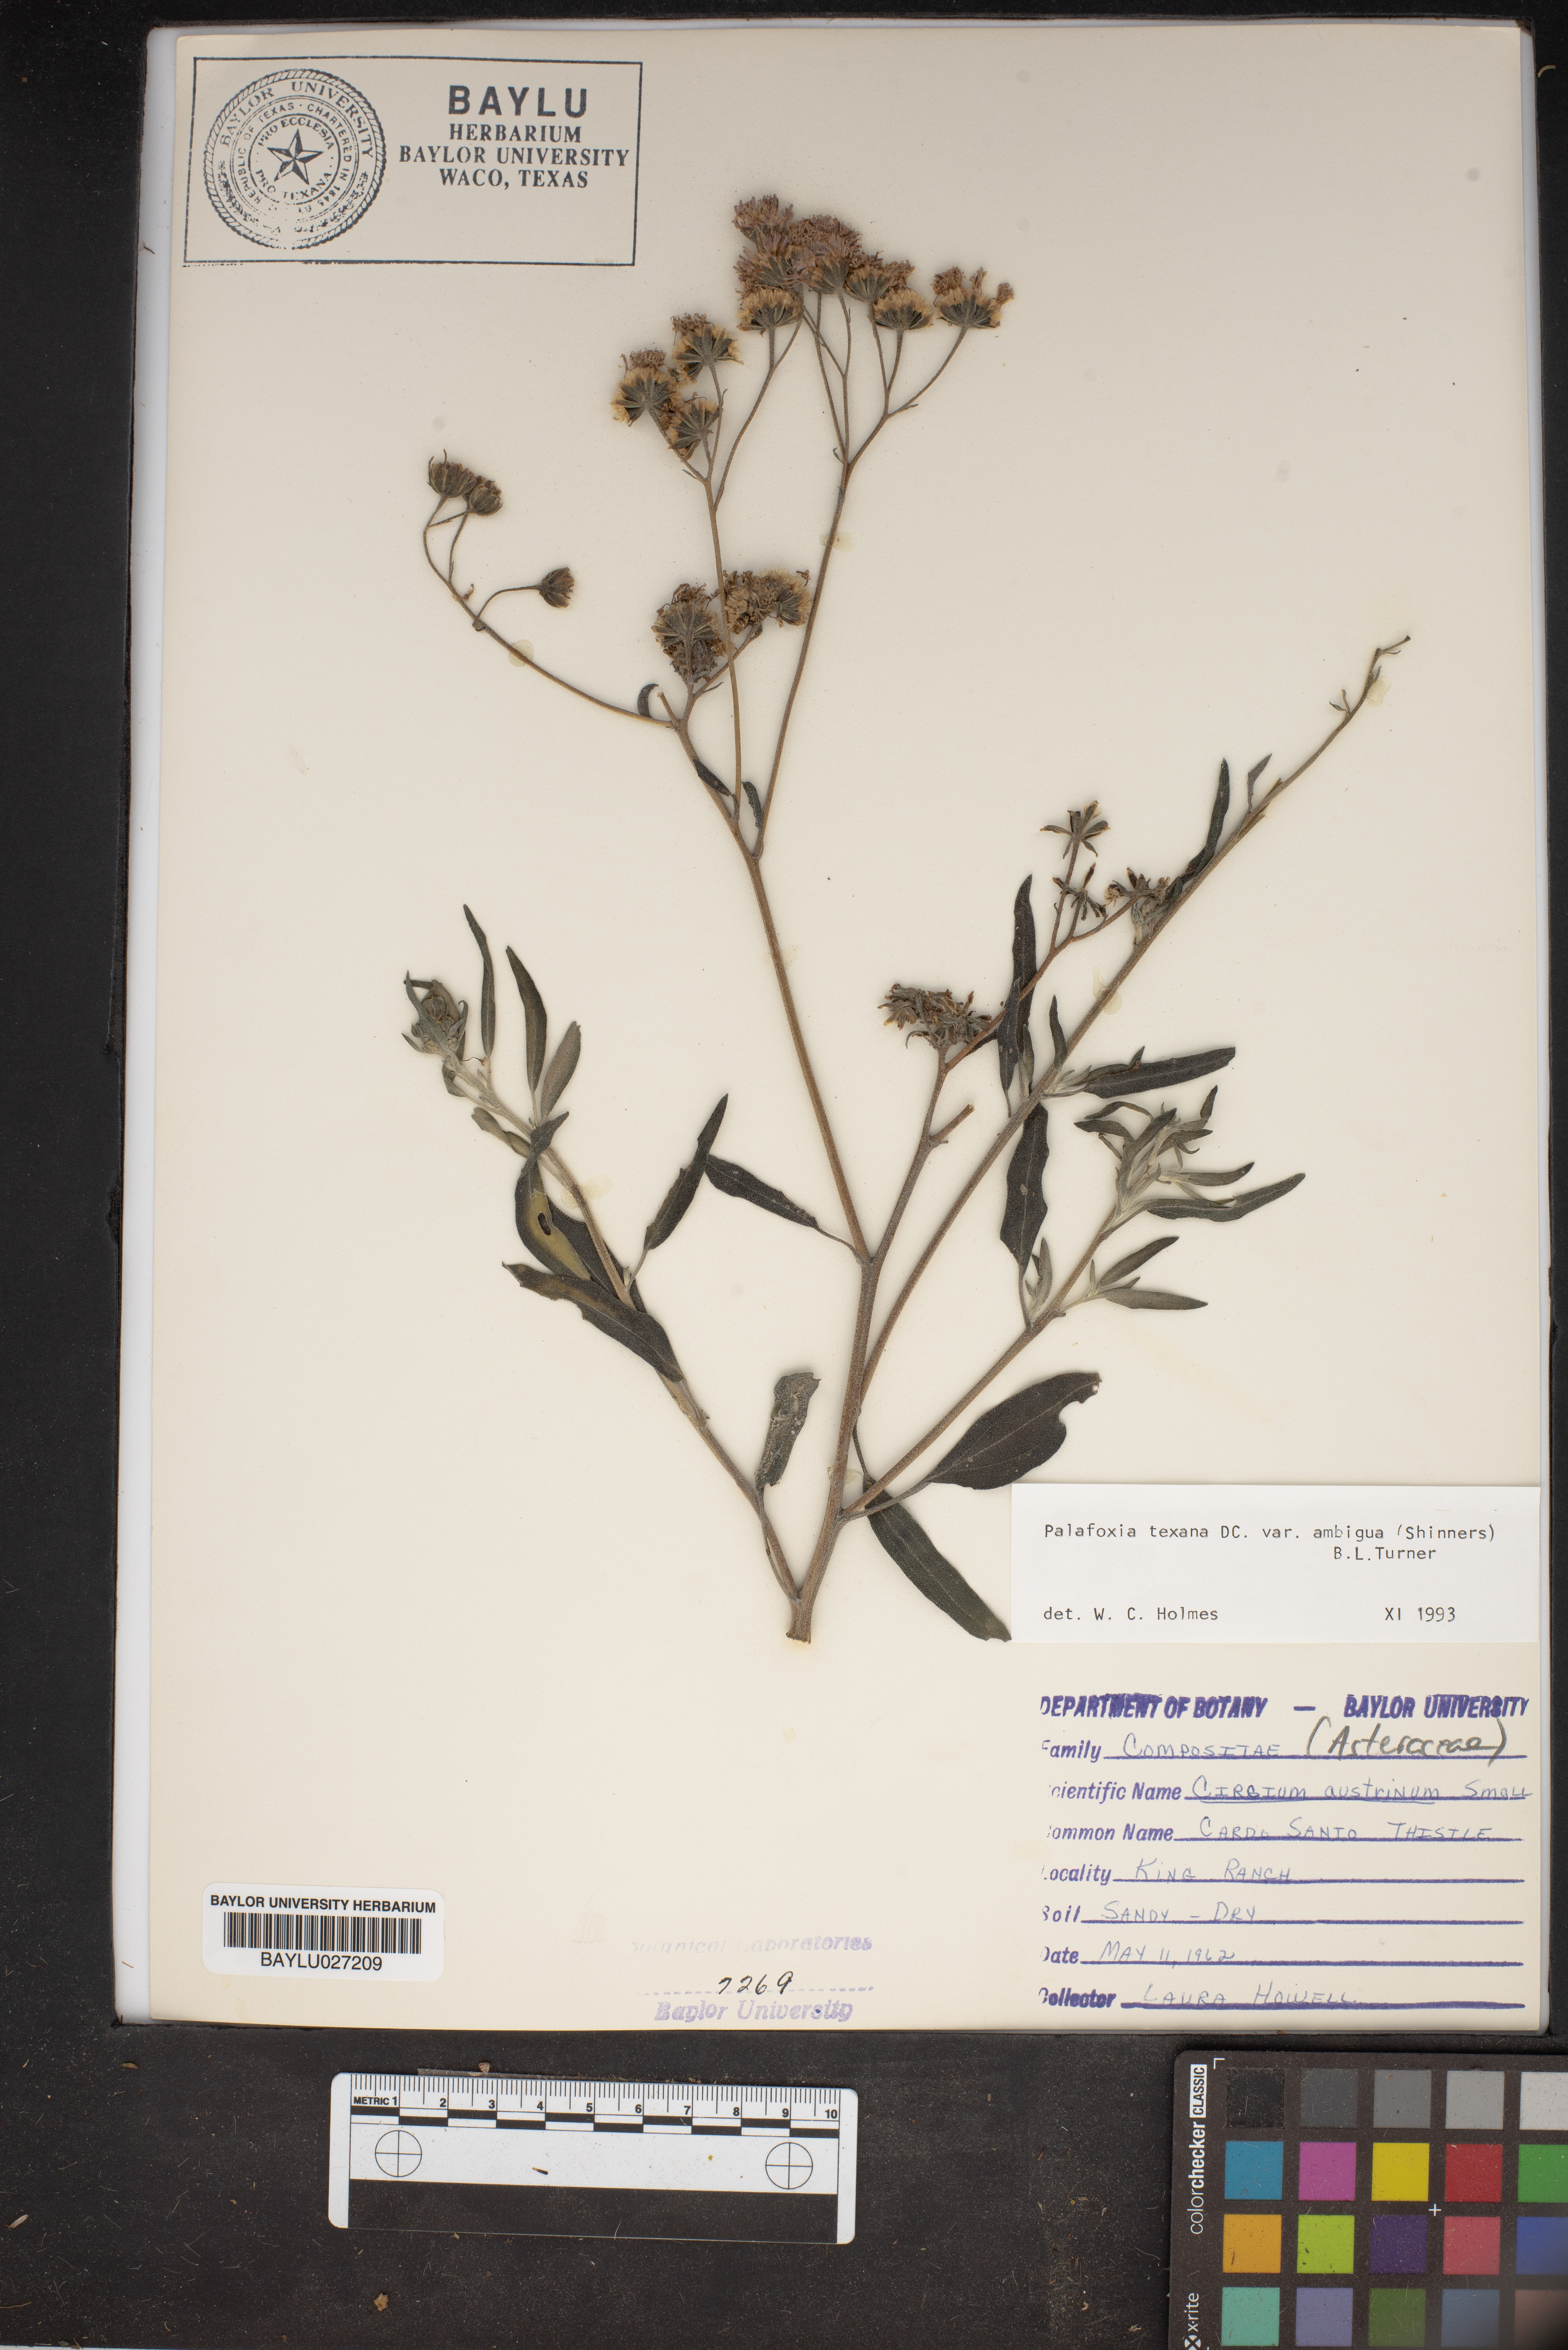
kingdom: Plantae
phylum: Tracheophyta
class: Magnoliopsida
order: Asterales
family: Asteraceae
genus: Palafoxia
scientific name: Palafoxia texana
